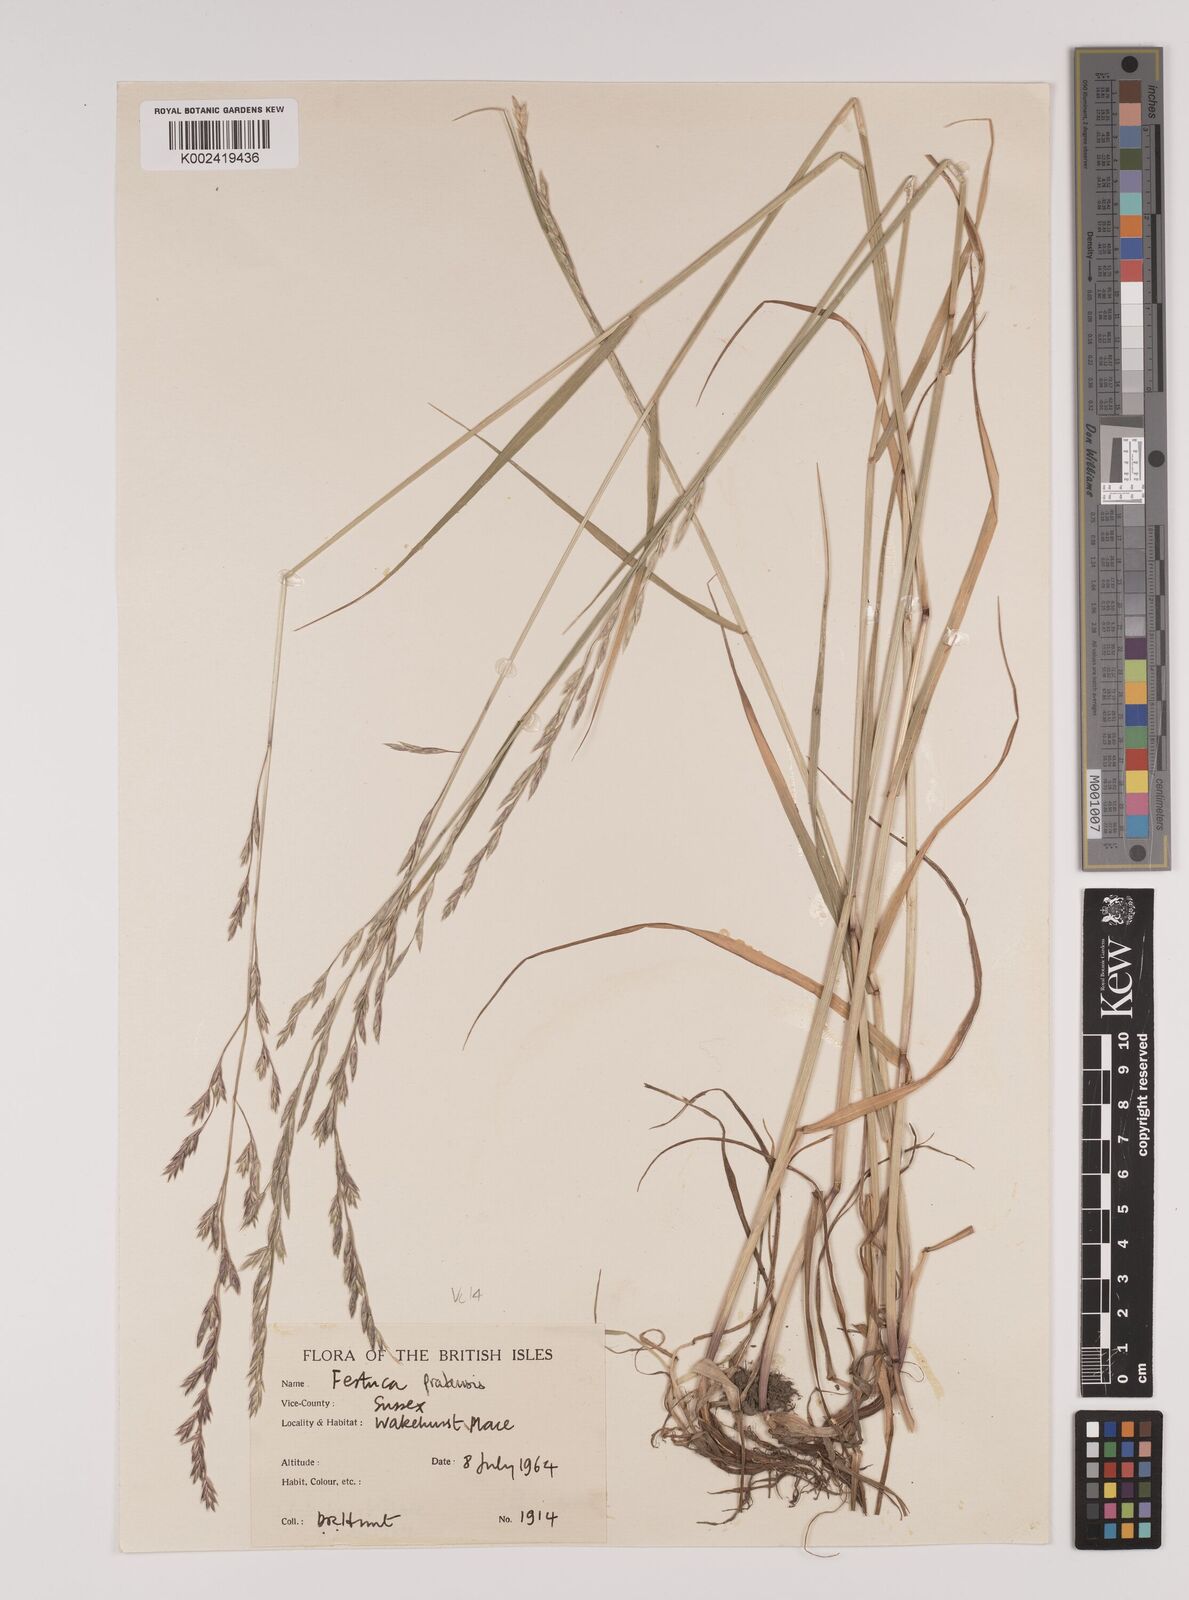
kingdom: Plantae
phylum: Tracheophyta
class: Liliopsida
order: Poales
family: Poaceae
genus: Lolium
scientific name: Lolium pratense
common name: Dover grass
